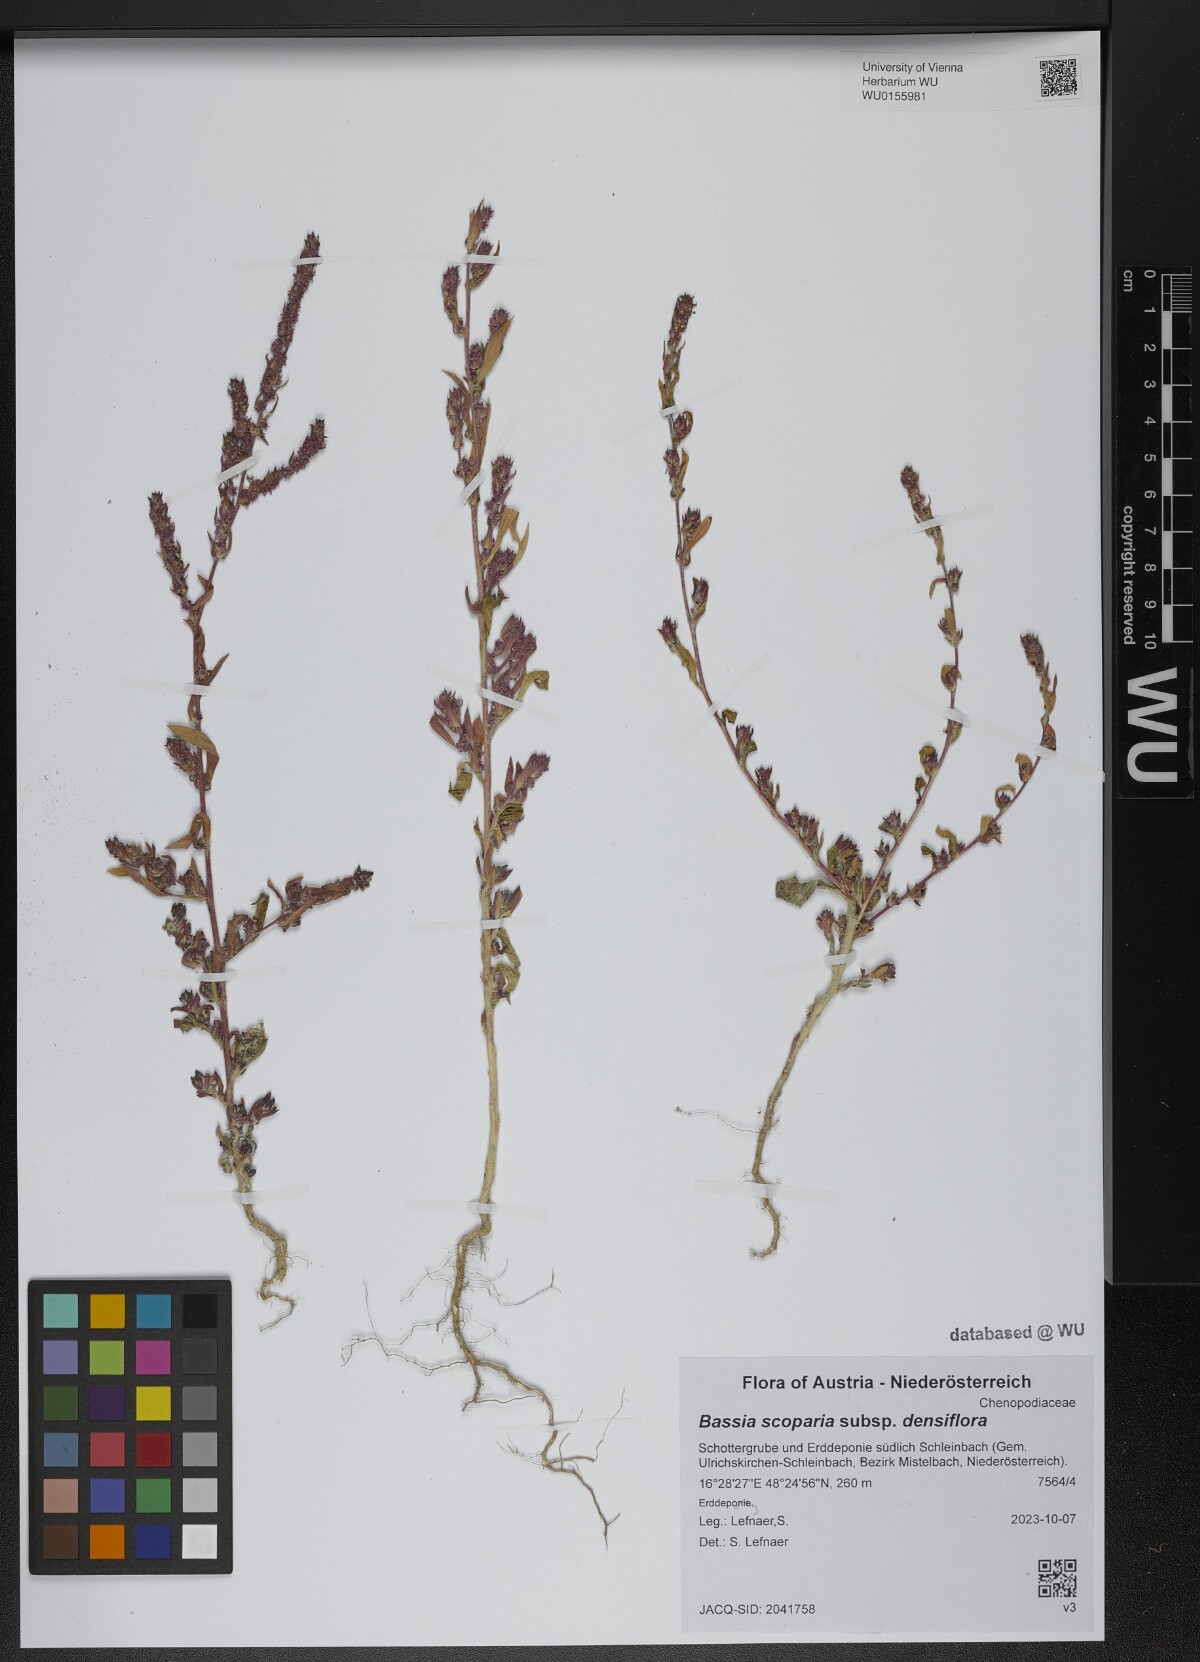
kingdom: Plantae
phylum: Tracheophyta
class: Magnoliopsida
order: Caryophyllales
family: Amaranthaceae
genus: Bassia
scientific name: Bassia scoparia
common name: Belvedere
